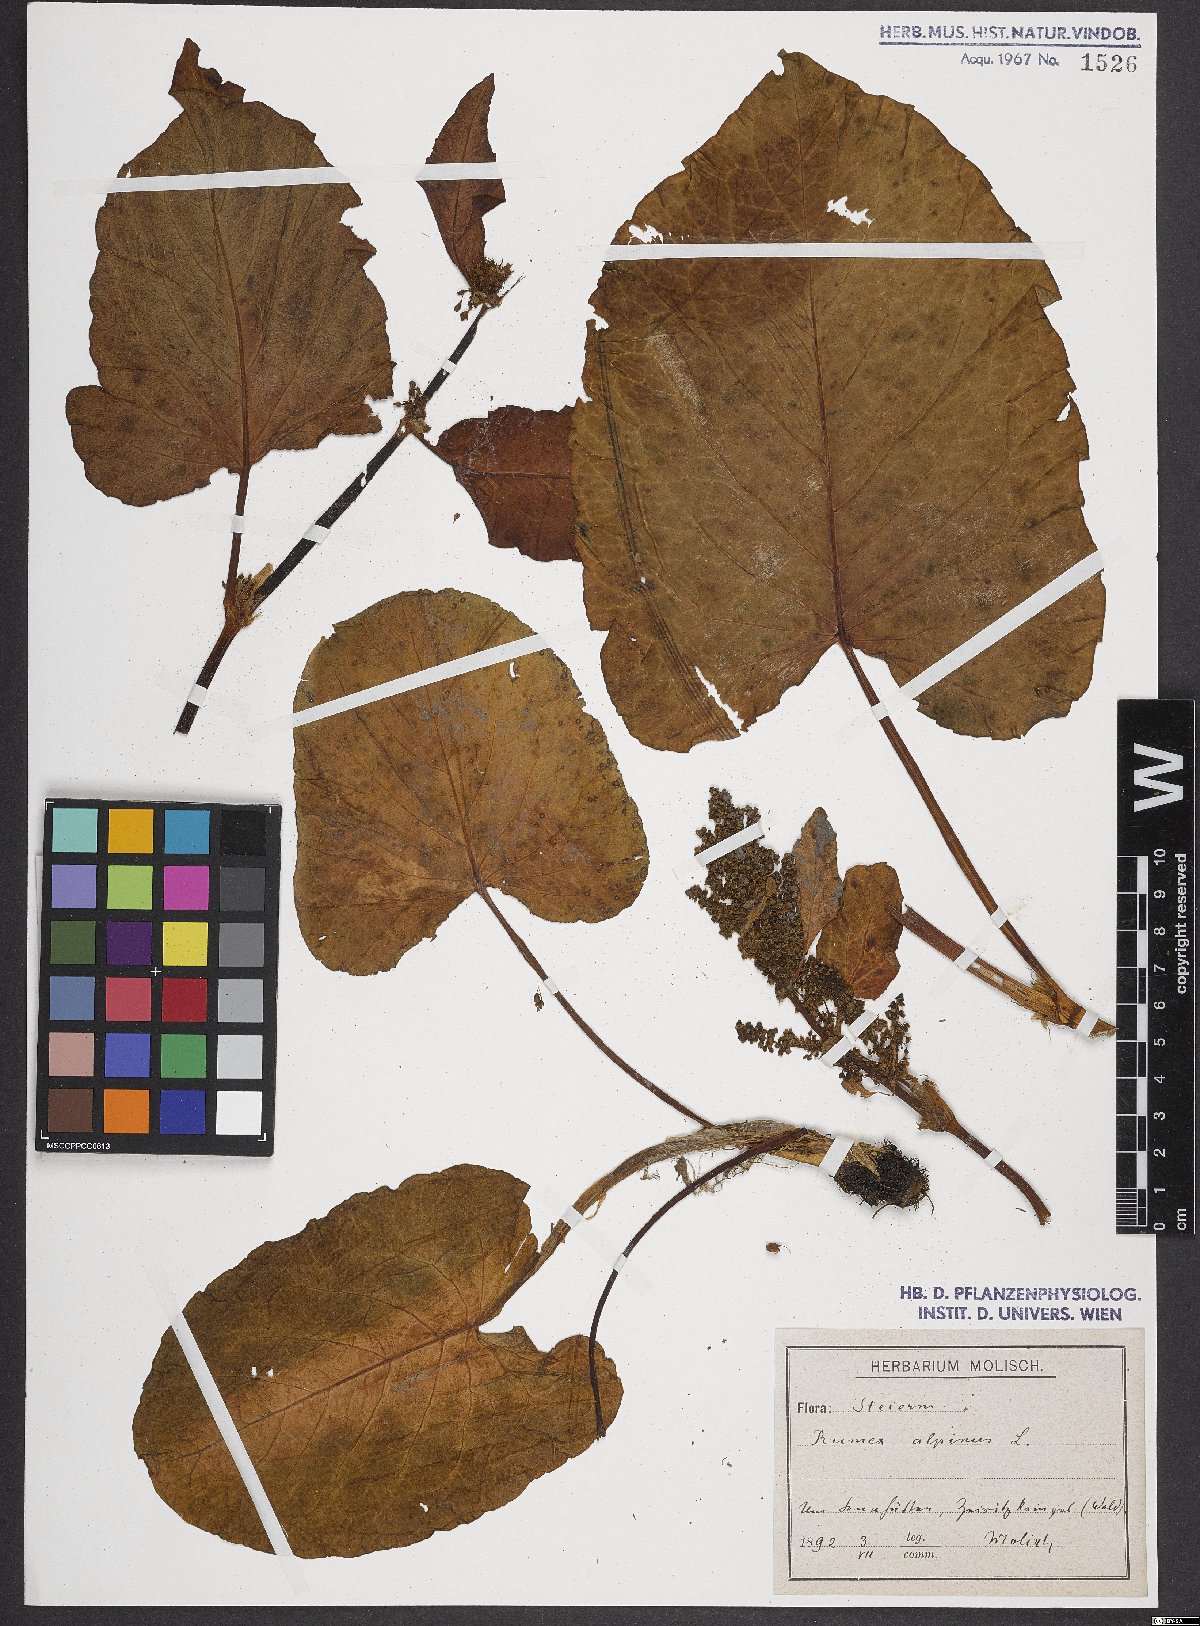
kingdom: Plantae
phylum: Tracheophyta
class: Magnoliopsida
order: Caryophyllales
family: Polygonaceae
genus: Rumex
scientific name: Rumex alpinus
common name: Alpine dock
